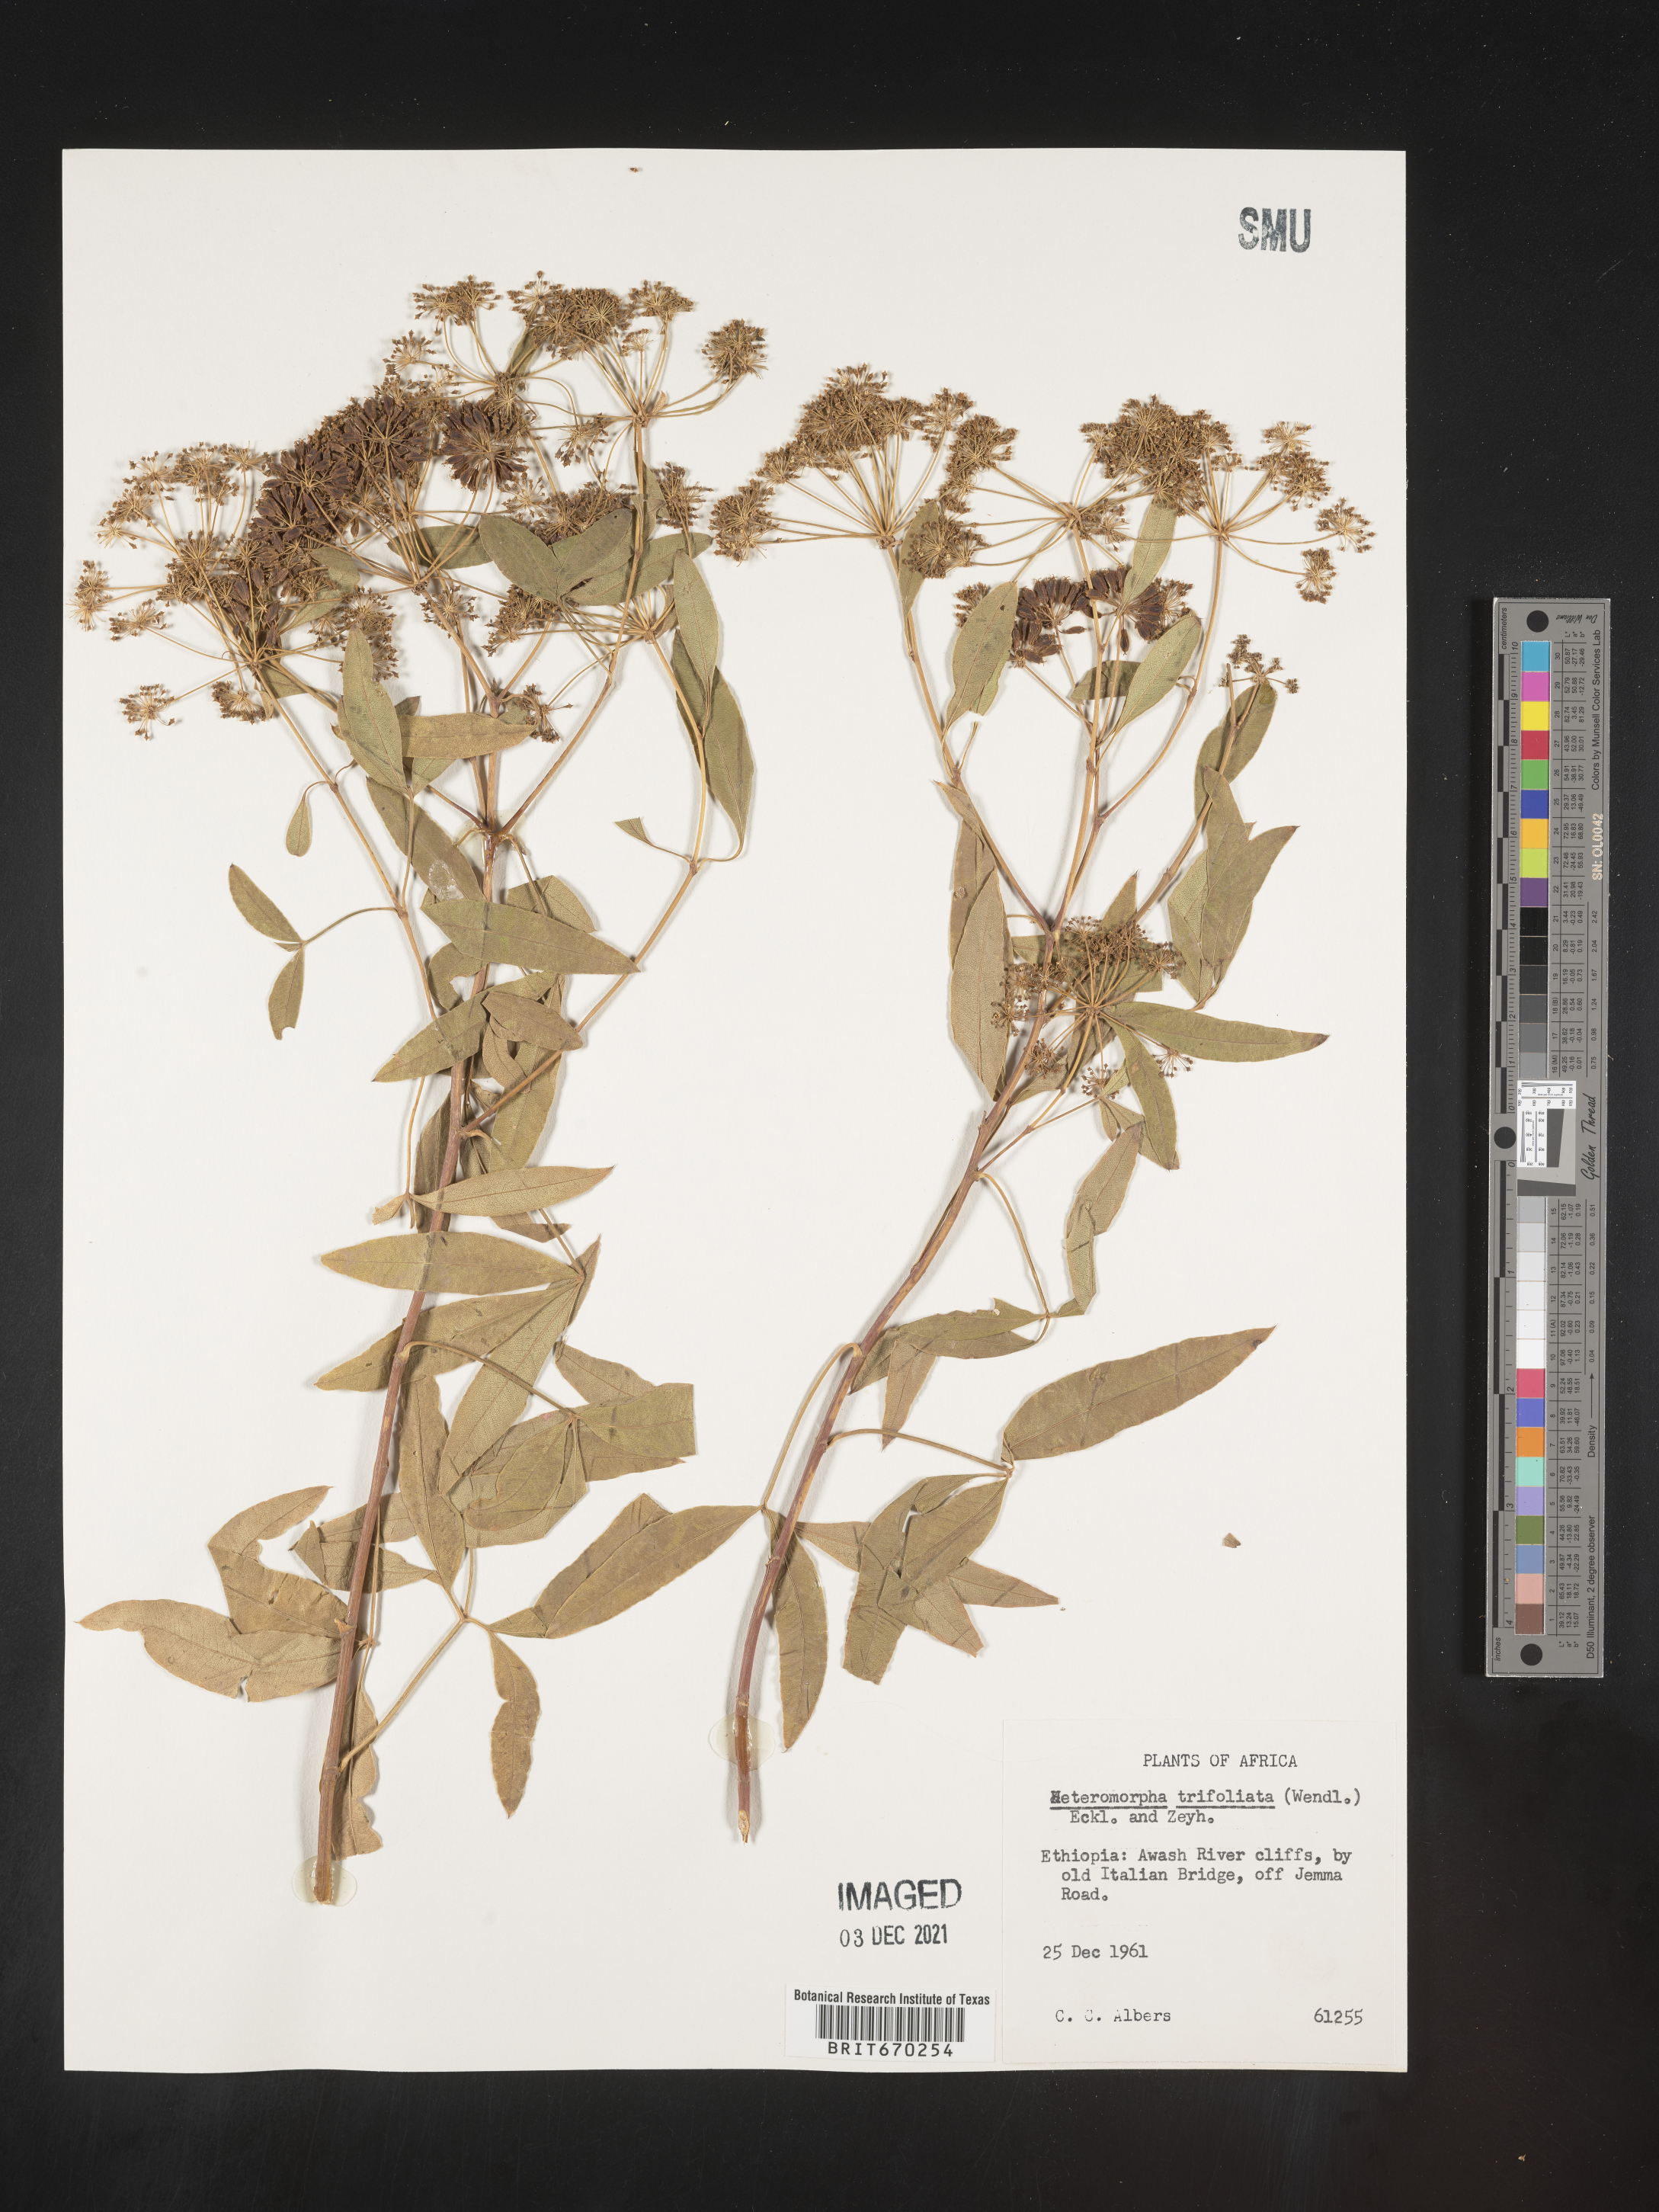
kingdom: Plantae
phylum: Tracheophyta
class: Magnoliopsida
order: Apiales
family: Apiaceae
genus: Heteromorpha
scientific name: Heteromorpha
